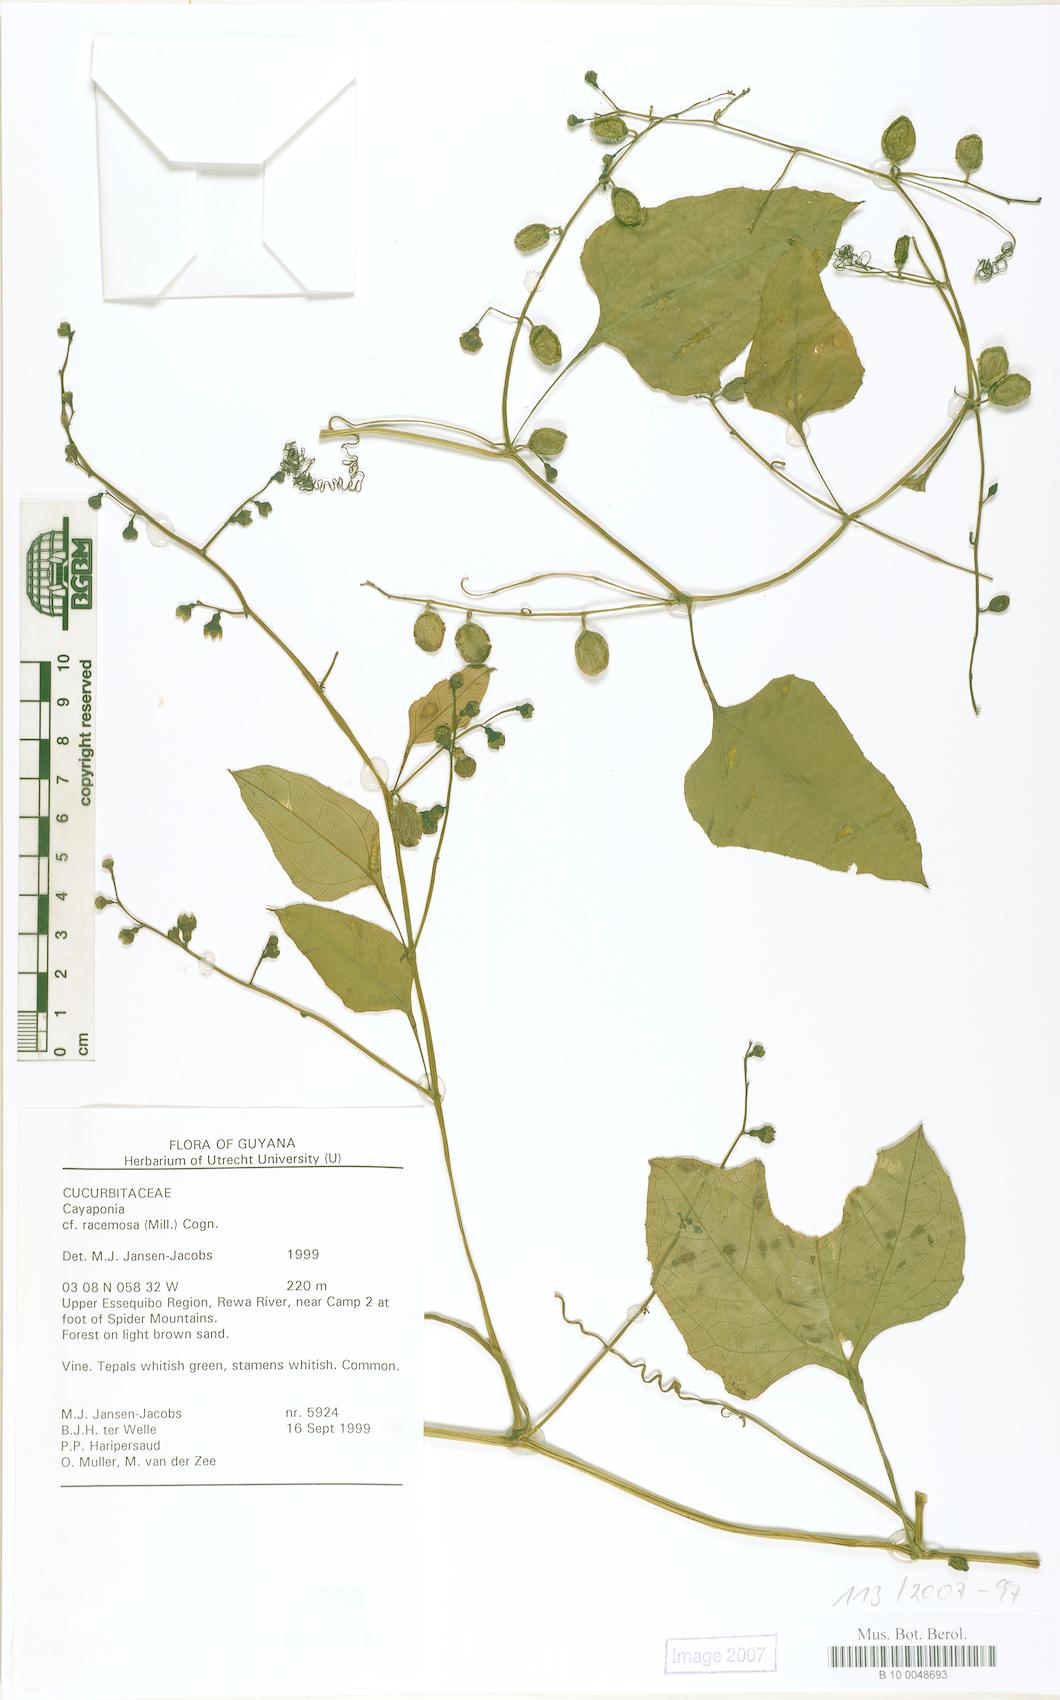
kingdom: Plantae
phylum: Tracheophyta
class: Magnoliopsida
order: Cucurbitales
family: Cucurbitaceae
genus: Cayaponia
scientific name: Cayaponia racemosa
